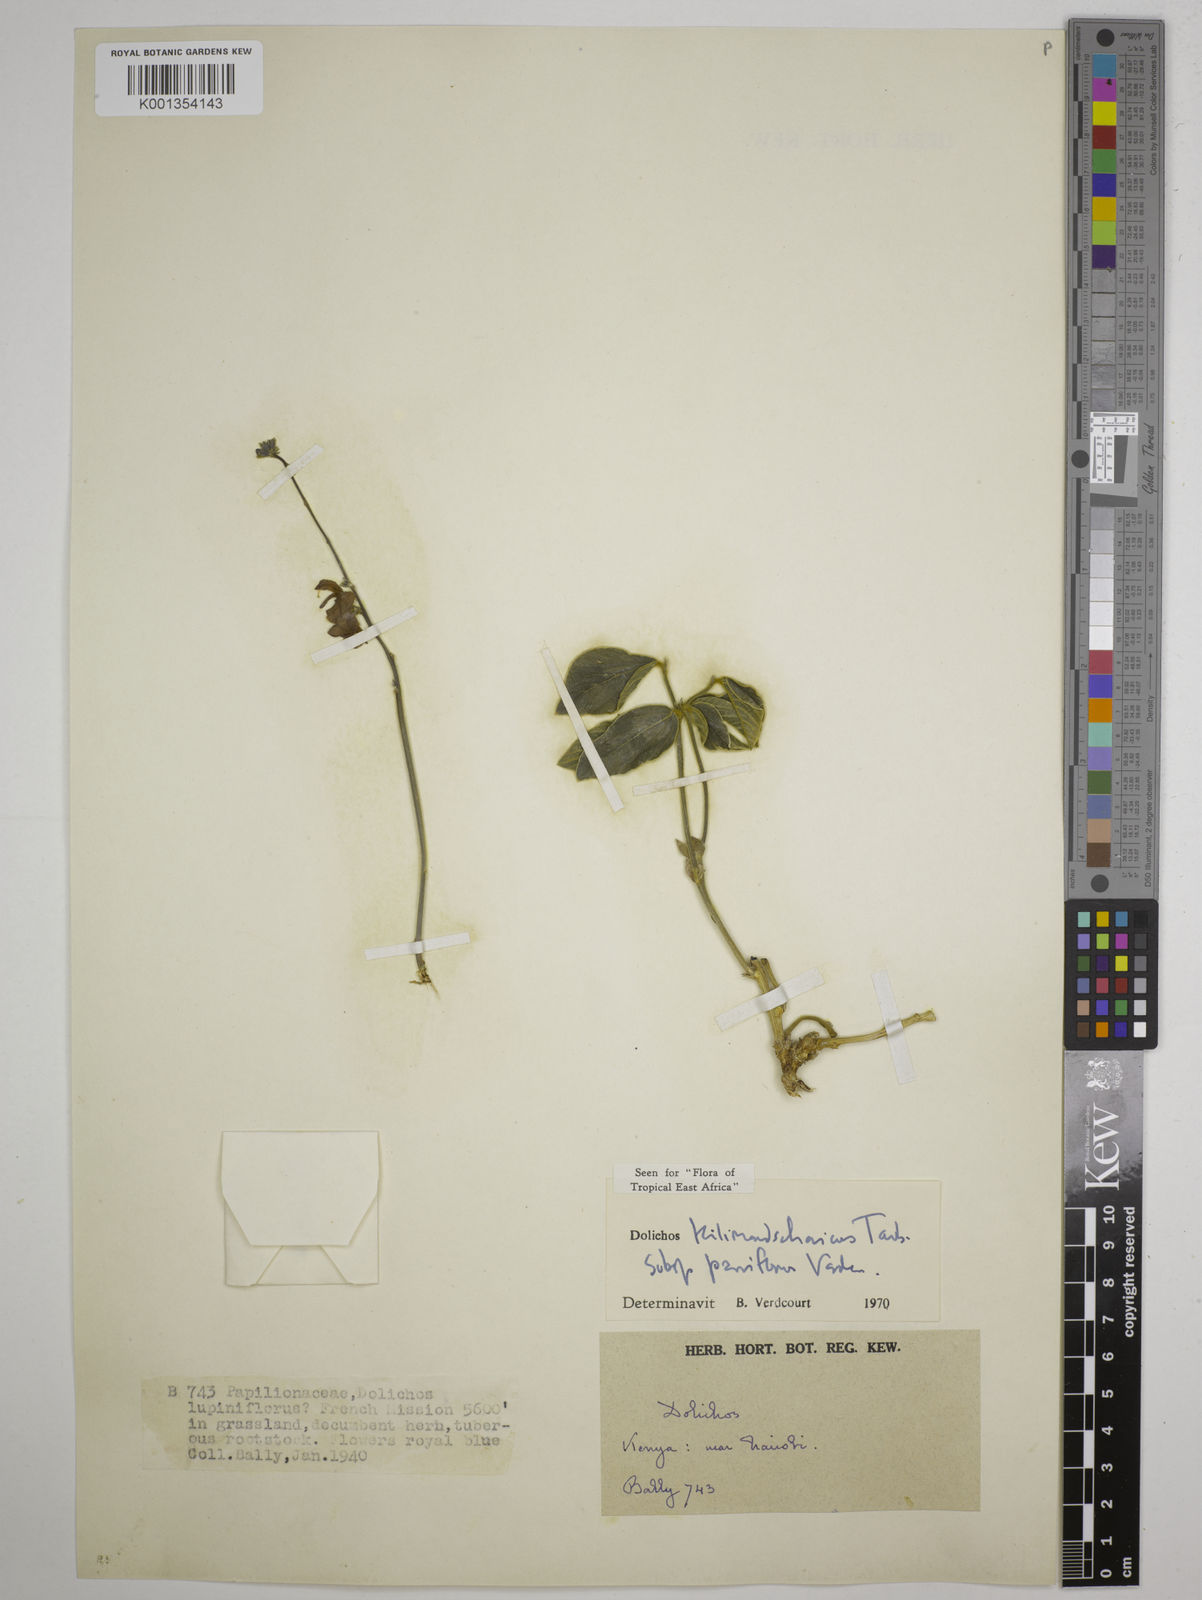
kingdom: Plantae
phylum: Tracheophyta
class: Magnoliopsida
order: Fabales
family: Fabaceae
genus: Dolichos
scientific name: Dolichos
